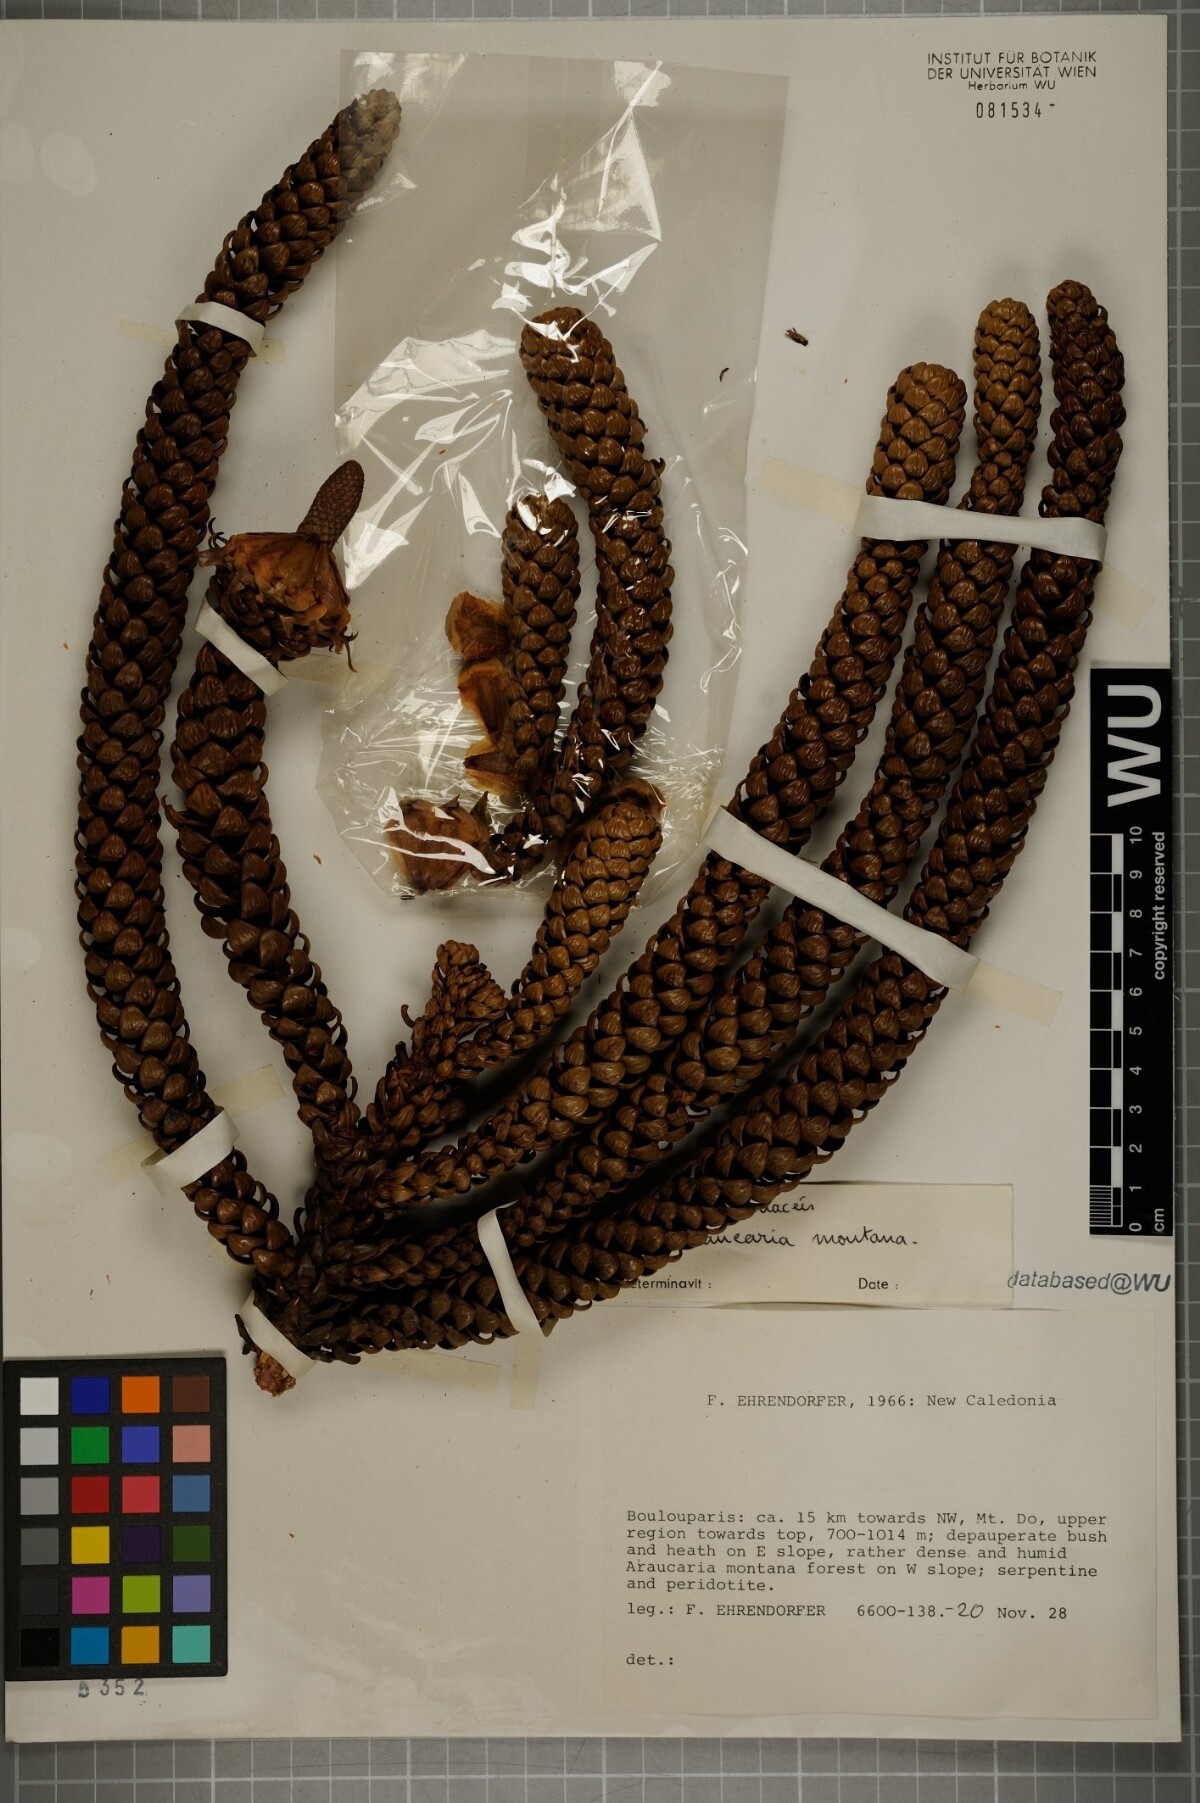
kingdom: Plantae
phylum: Tracheophyta
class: Pinopsida
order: Pinales
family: Araucariaceae
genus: Araucaria
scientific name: Araucaria montana
